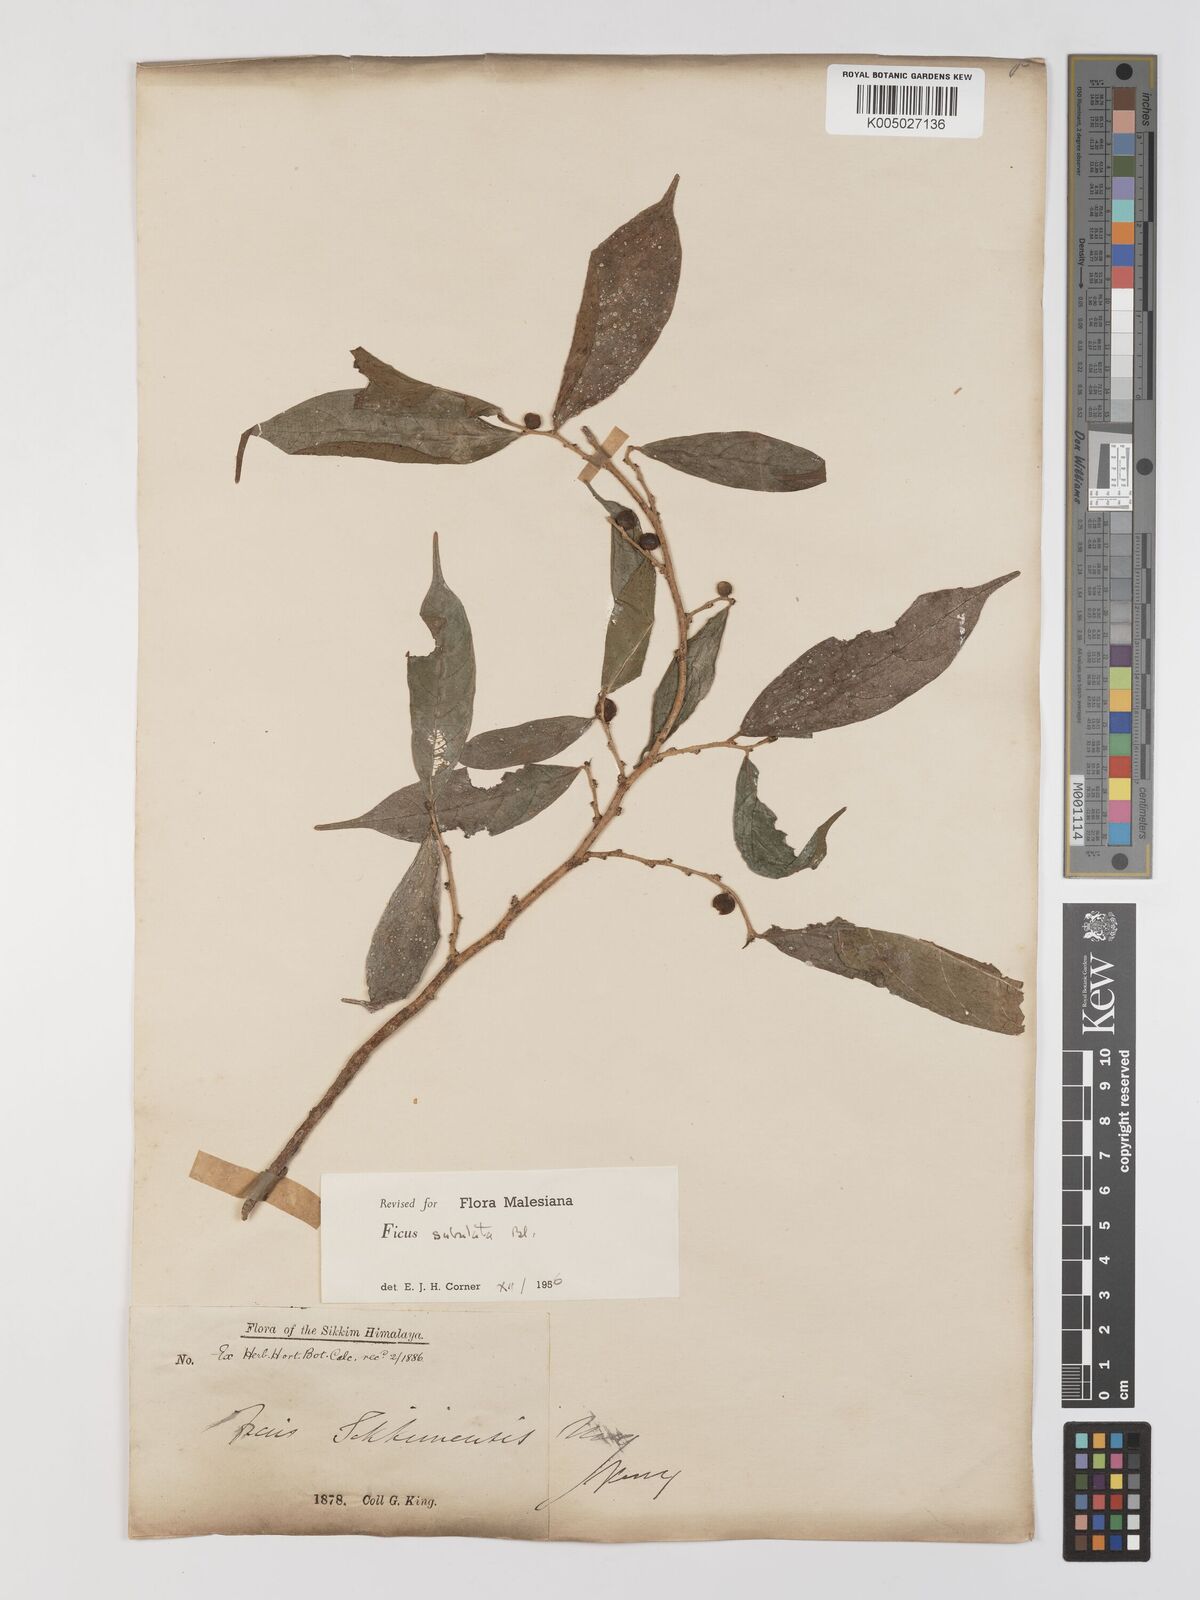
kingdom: Plantae
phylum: Tracheophyta
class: Magnoliopsida
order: Rosales
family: Moraceae
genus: Ficus
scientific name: Ficus subulata
